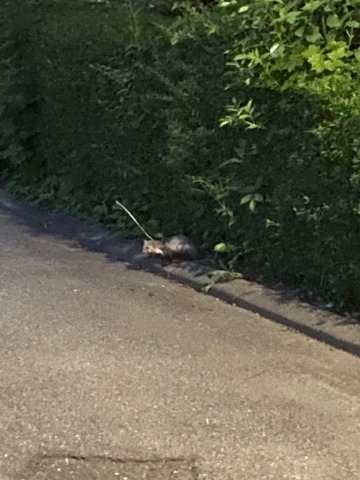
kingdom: Animalia
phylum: Chordata
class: Mammalia
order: Carnivora
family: Mustelidae
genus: Martes
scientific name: Martes foina
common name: Husmår
